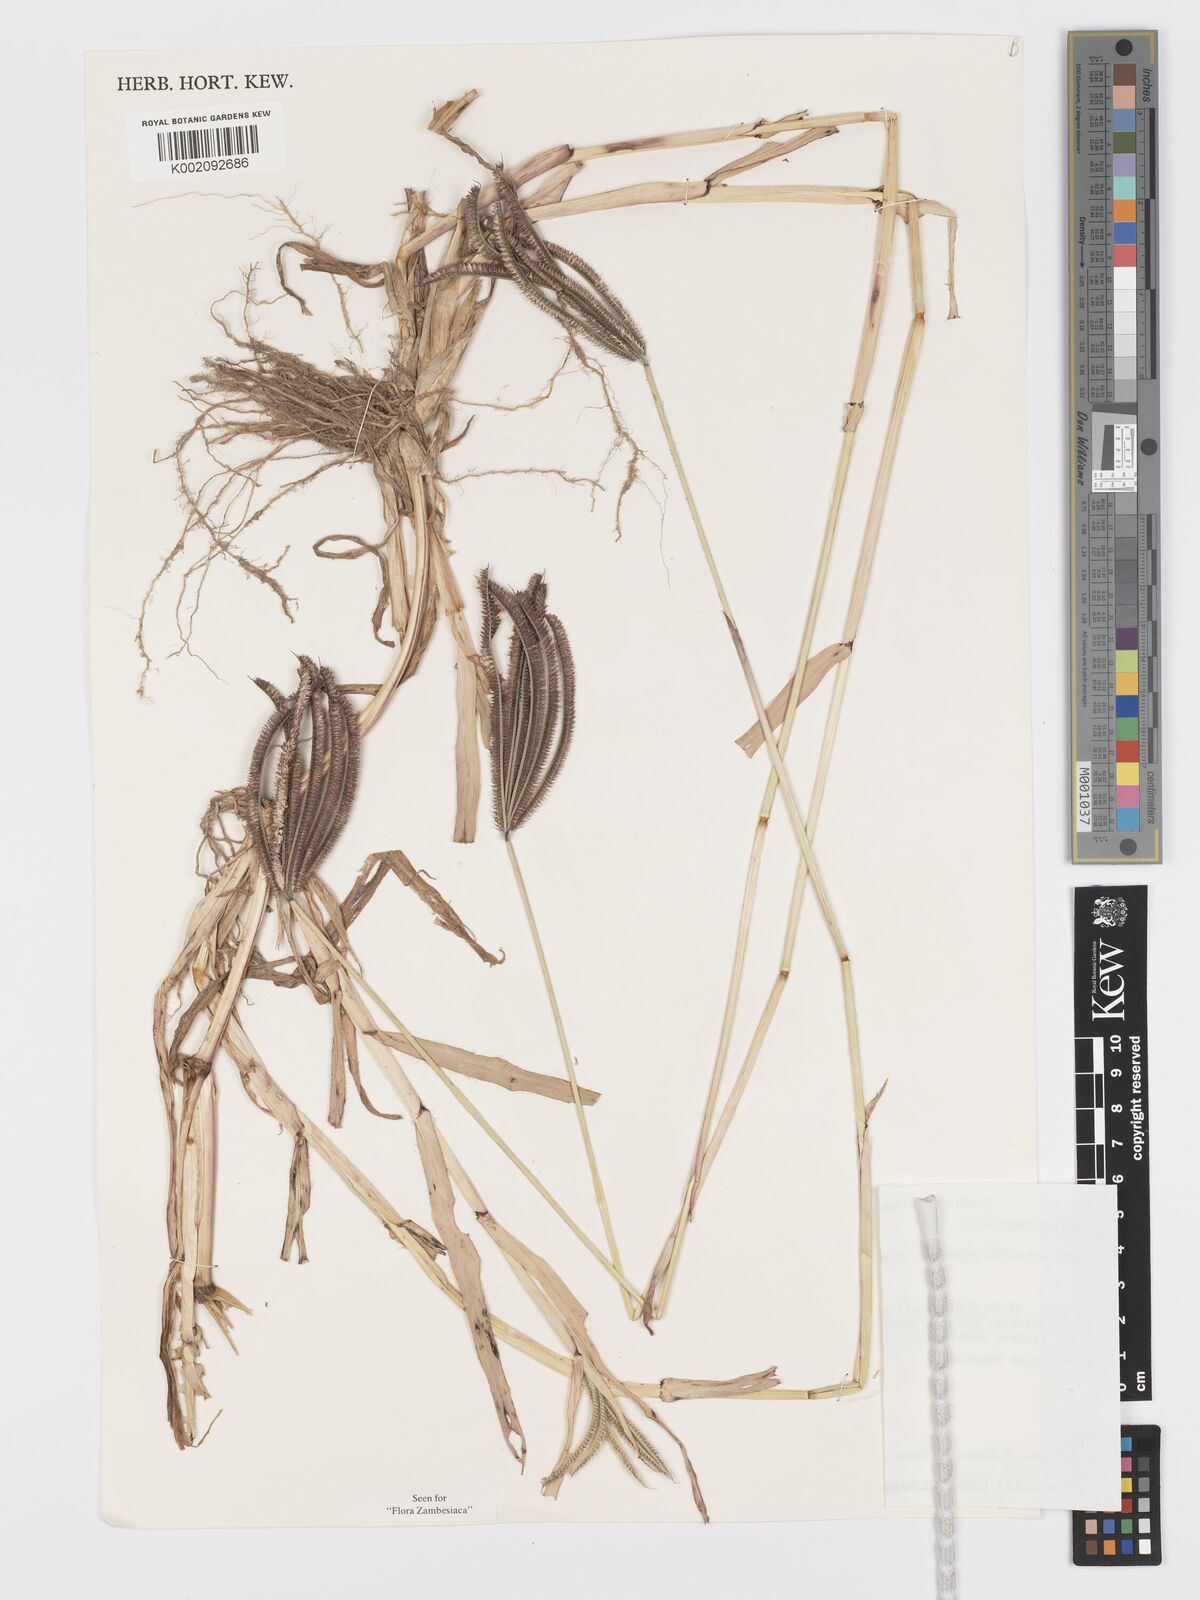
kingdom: Plantae
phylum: Tracheophyta
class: Liliopsida
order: Poales
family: Poaceae
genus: Dactyloctenium
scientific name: Dactyloctenium giganteum
